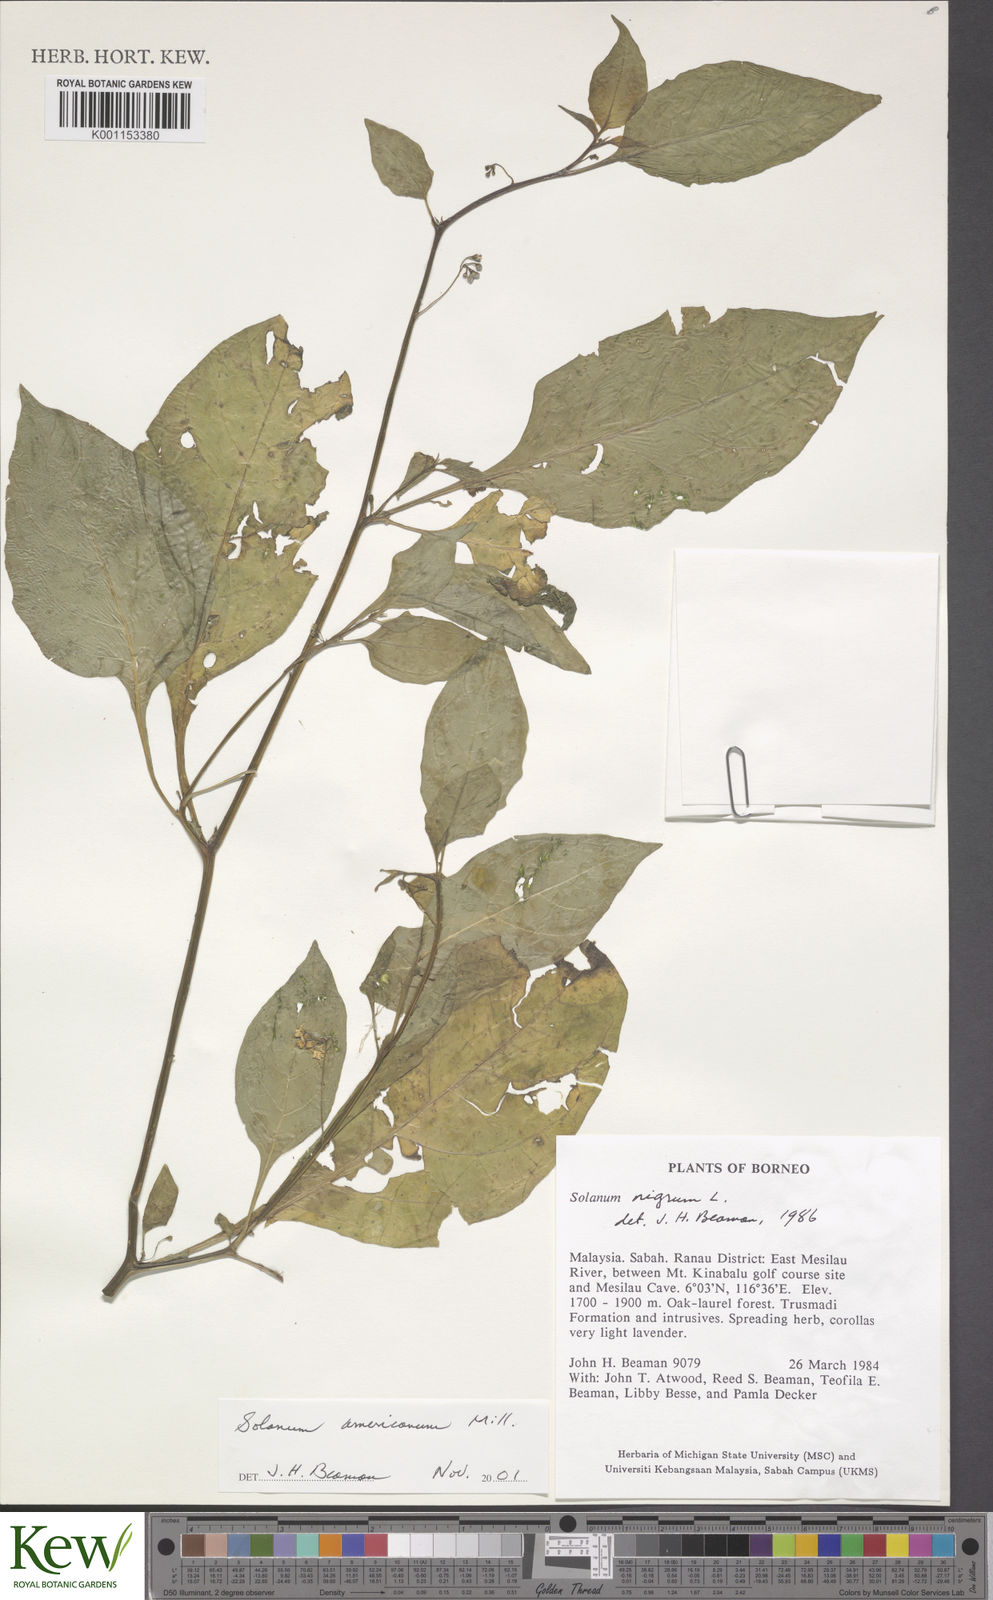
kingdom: Plantae
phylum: Tracheophyta
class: Magnoliopsida
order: Solanales
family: Solanaceae
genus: Solanum
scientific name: Solanum americanum
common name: American black nightshade
